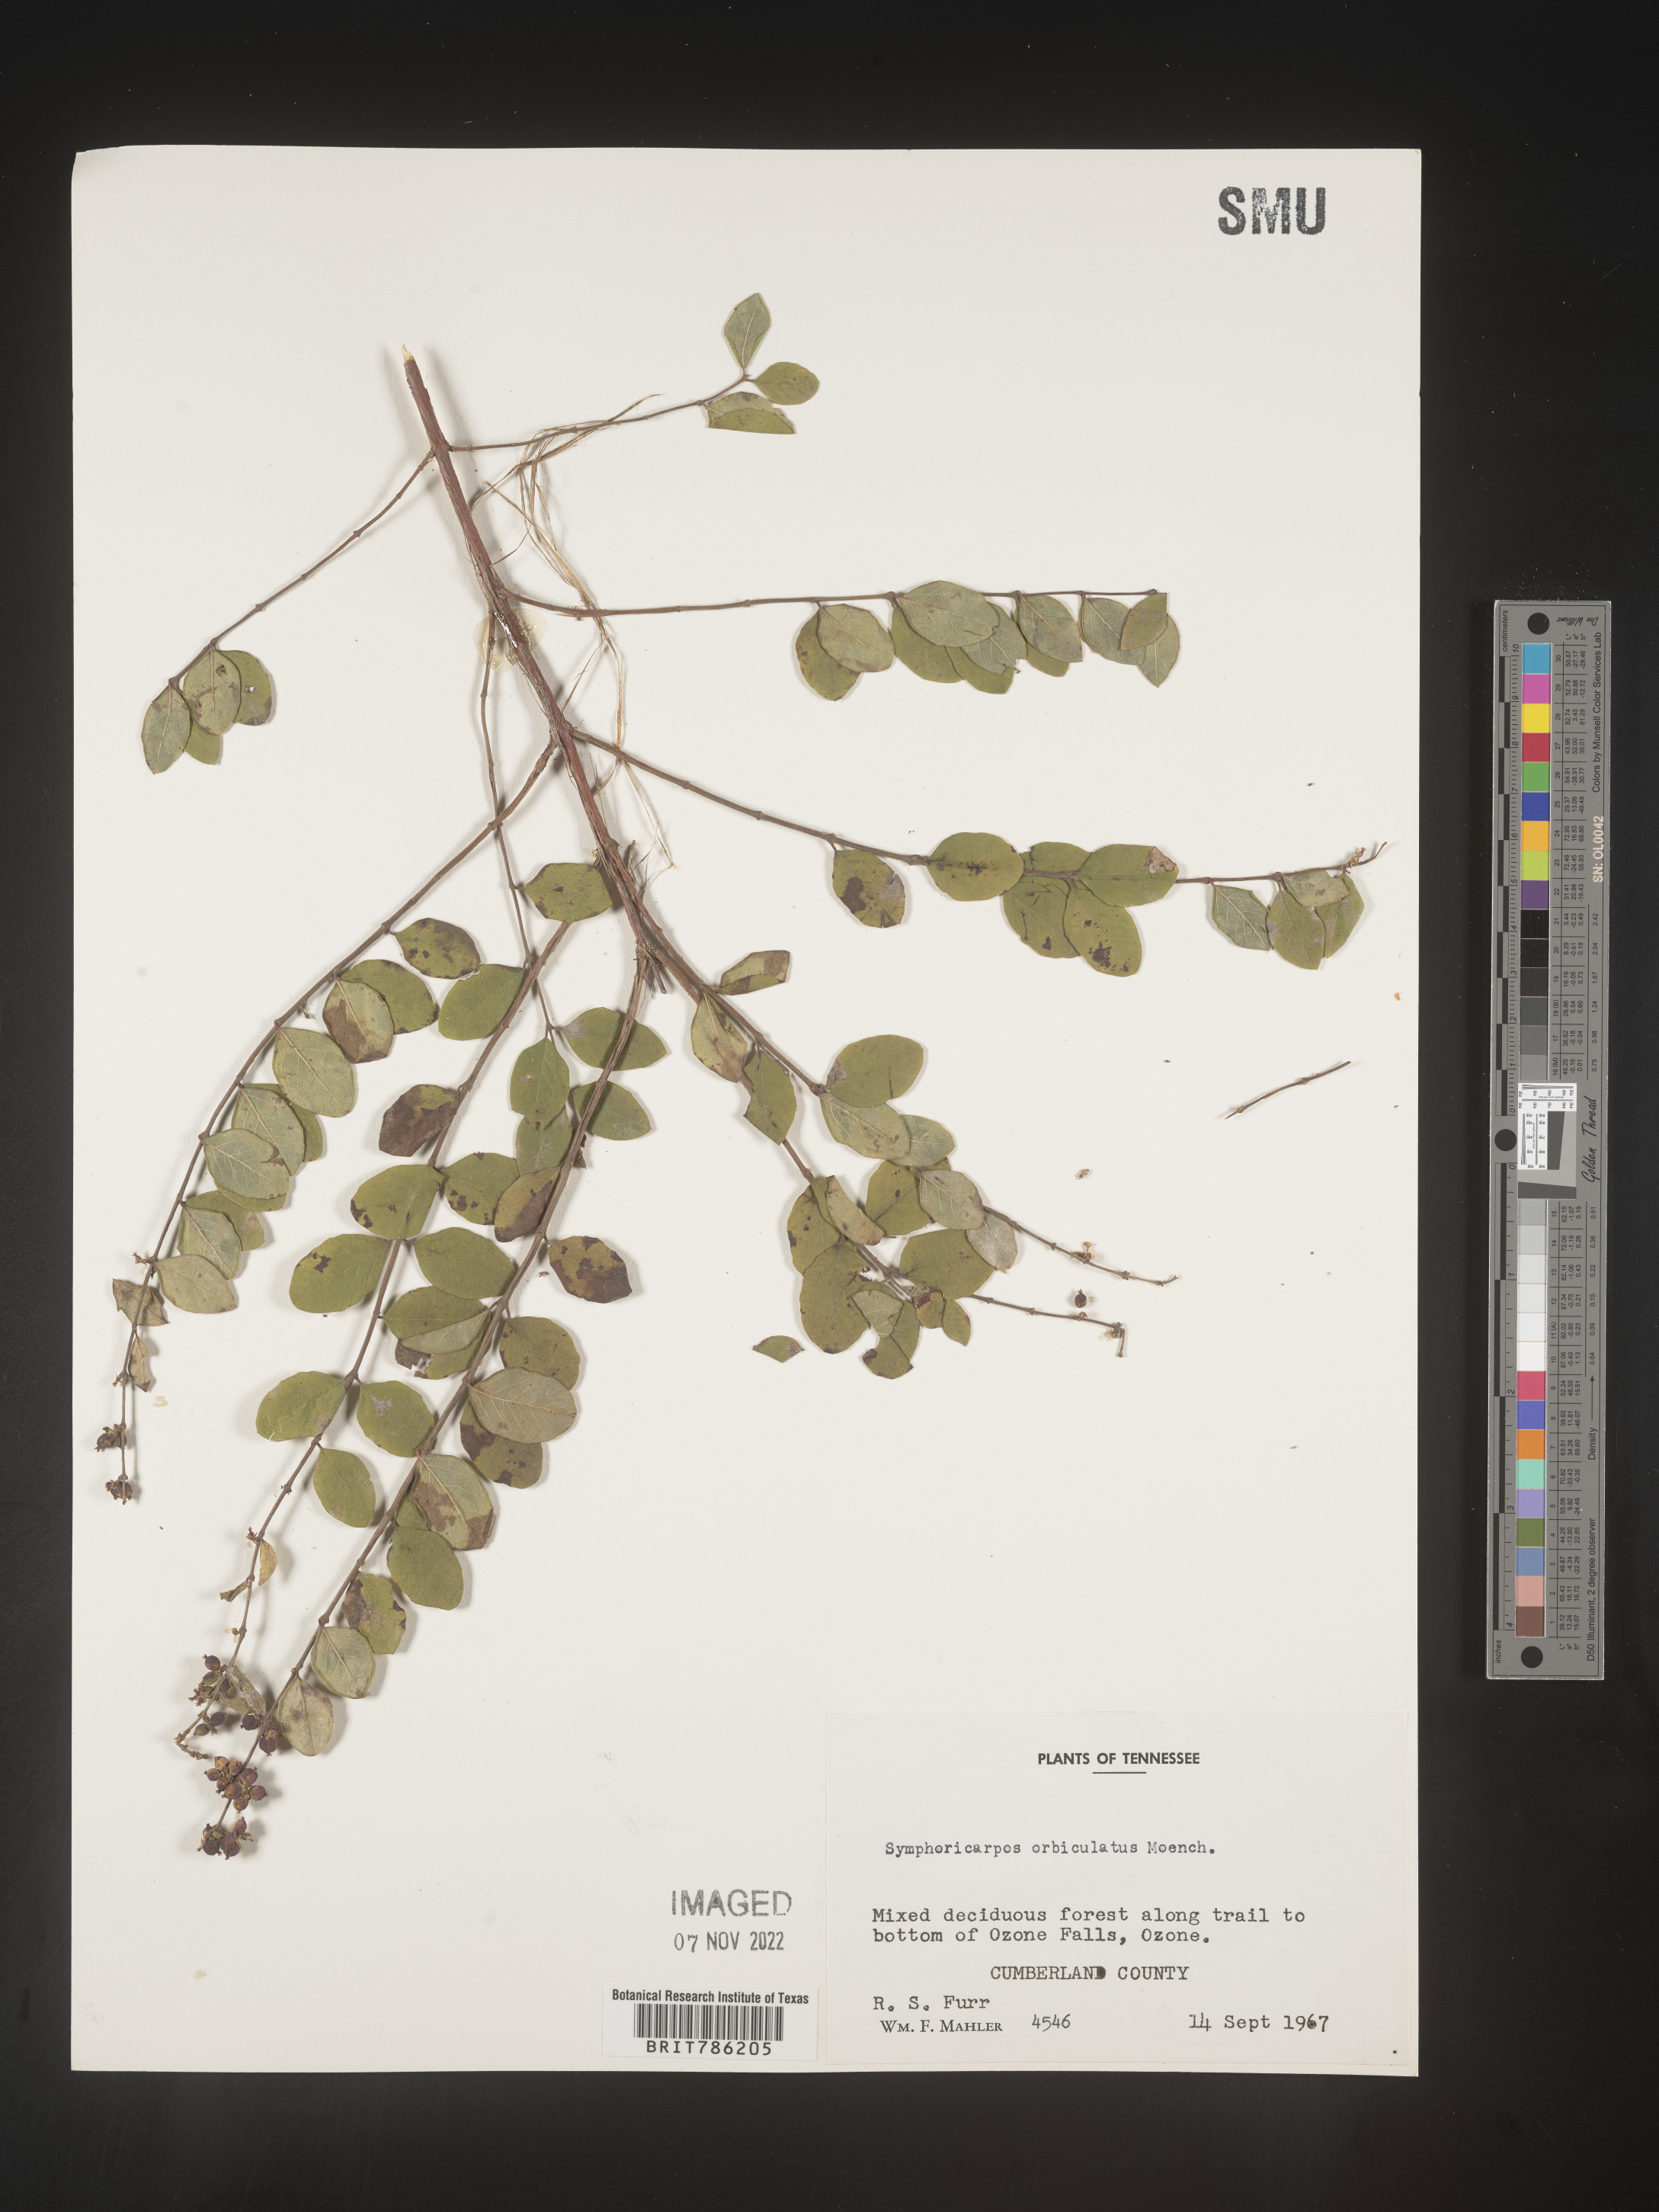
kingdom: Plantae
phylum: Tracheophyta
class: Magnoliopsida
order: Dipsacales
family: Caprifoliaceae
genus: Symphoricarpos
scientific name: Symphoricarpos orbiculatus
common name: Coralberry
